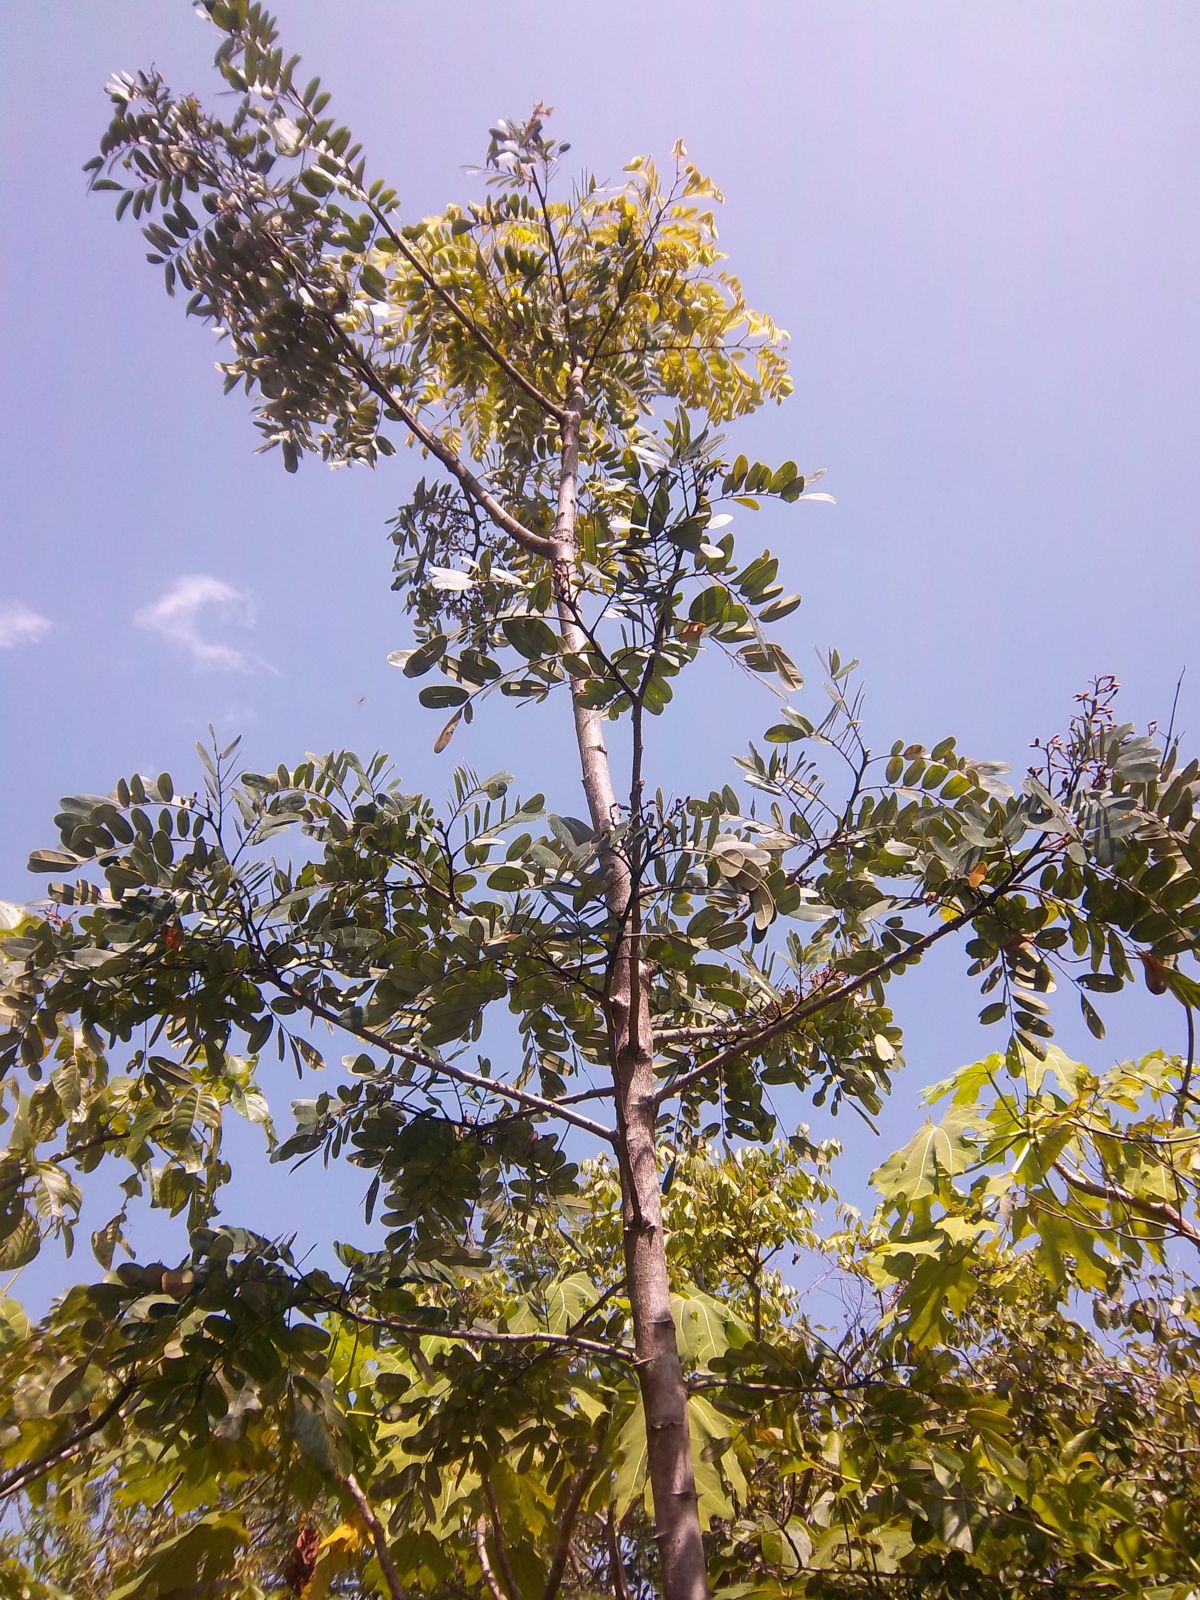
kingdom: Plantae
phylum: Tracheophyta
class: Magnoliopsida
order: Fabales
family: Fabaceae
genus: Machaerium
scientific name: Machaerium
